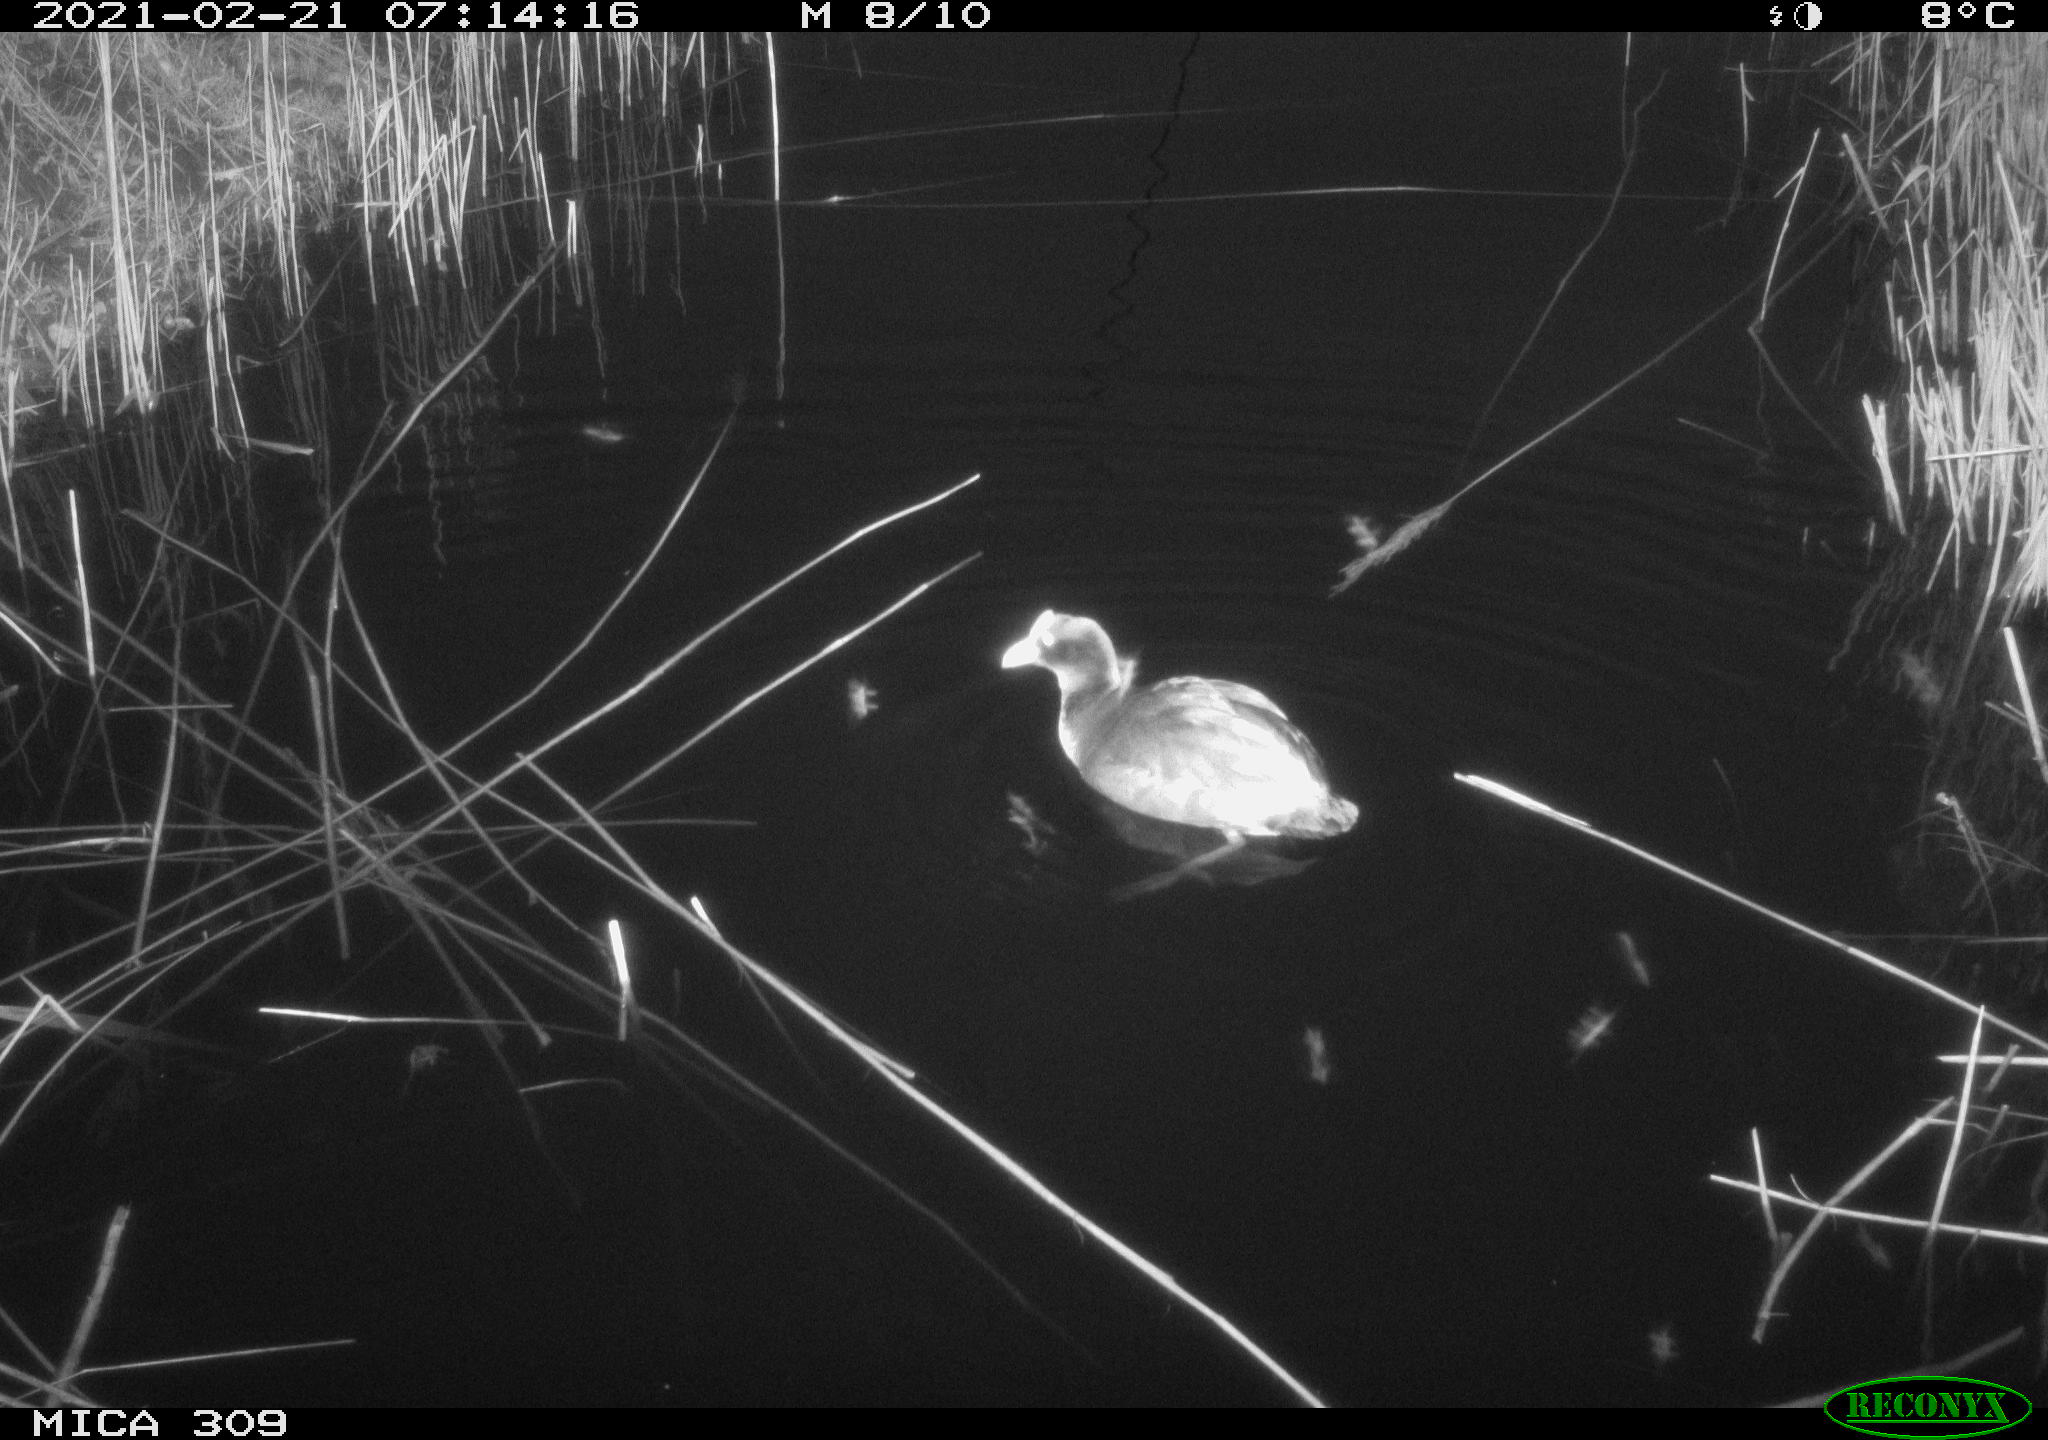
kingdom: Animalia
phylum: Chordata
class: Aves
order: Gruiformes
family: Rallidae
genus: Fulica
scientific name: Fulica atra
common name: Eurasian coot
